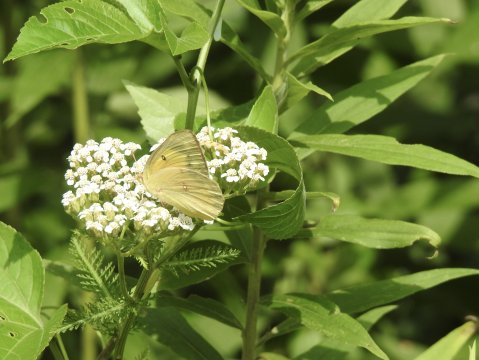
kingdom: Animalia
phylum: Arthropoda
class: Insecta
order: Lepidoptera
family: Pieridae
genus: Colias
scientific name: Colias eurytheme
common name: Orange Sulphur
